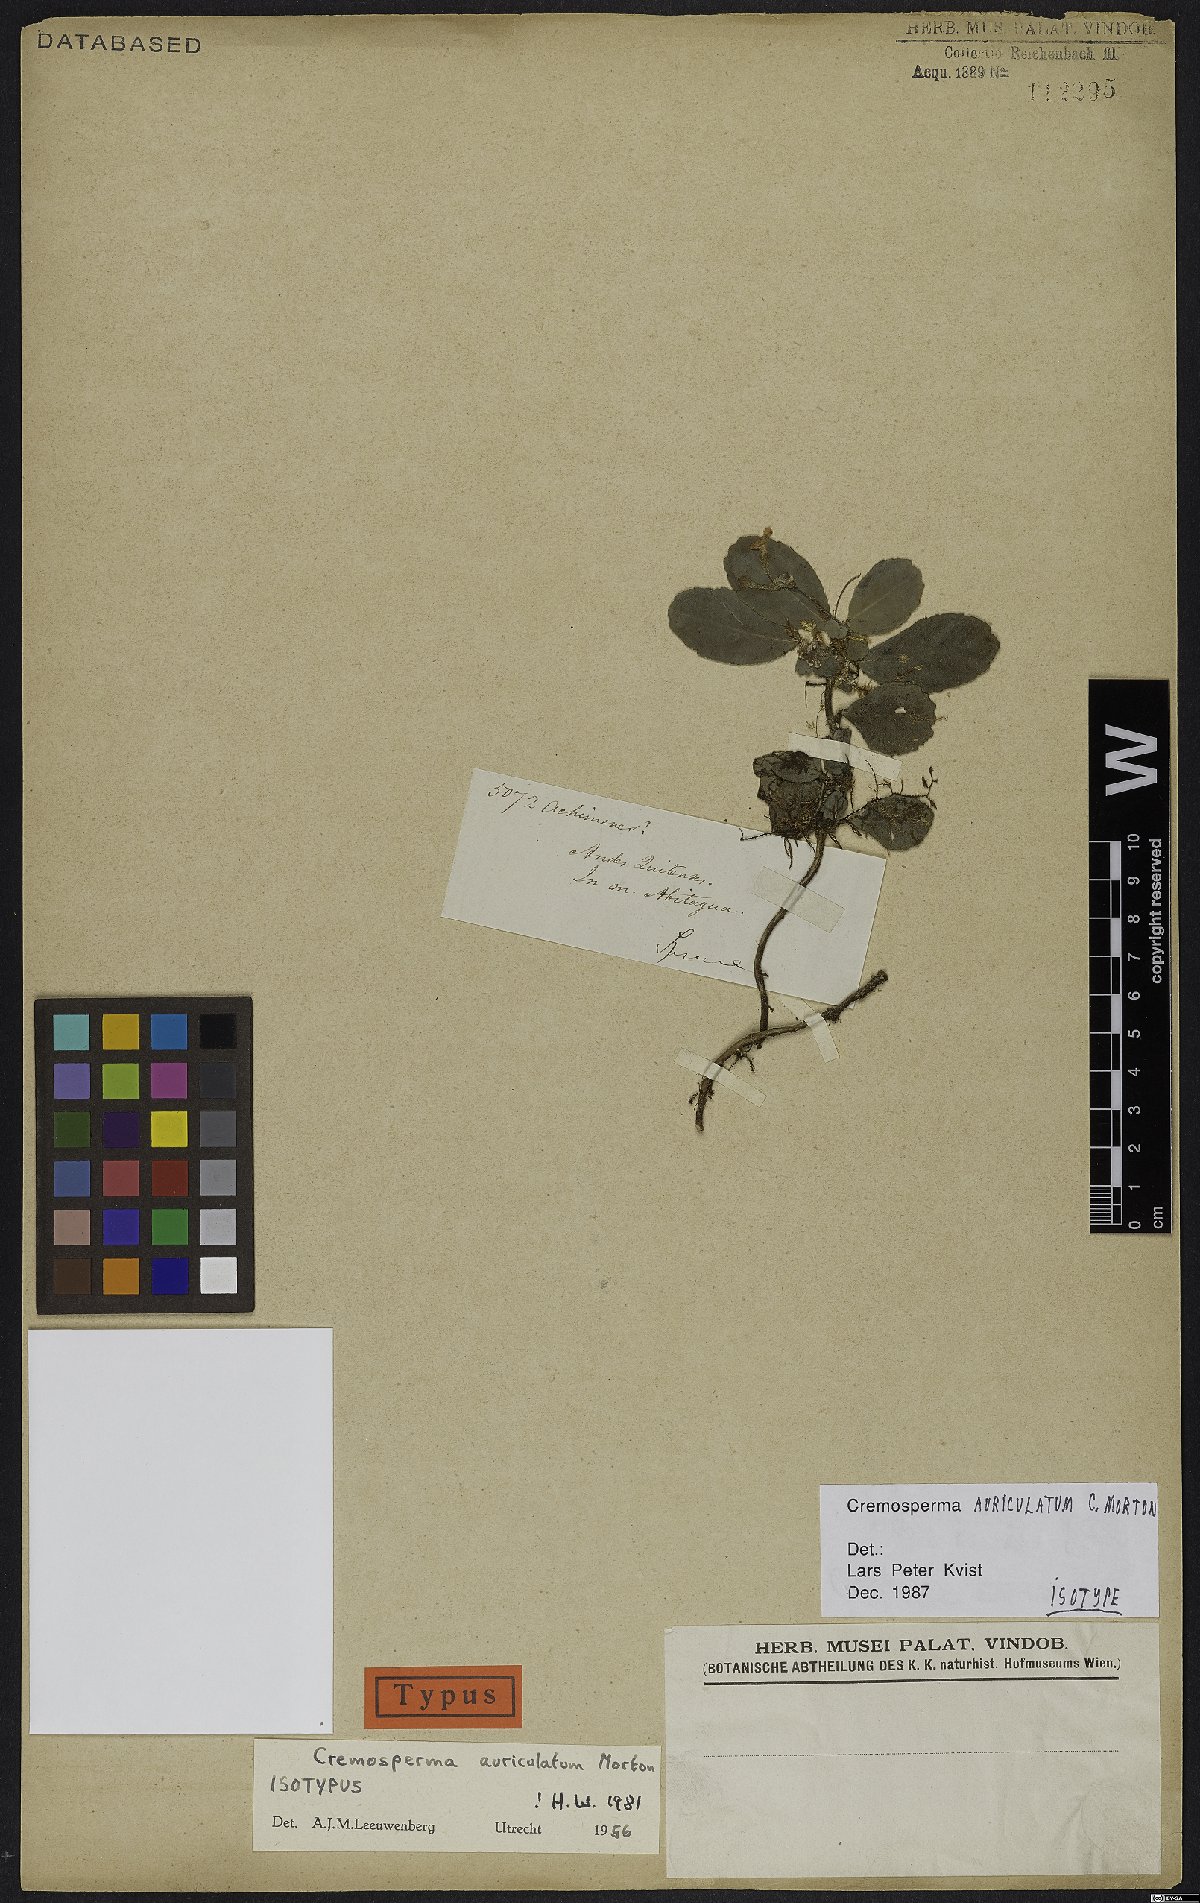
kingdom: Plantae
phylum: Tracheophyta
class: Magnoliopsida
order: Lamiales
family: Gesneriaceae
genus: Cremosperma
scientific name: Cremosperma auriculatum
